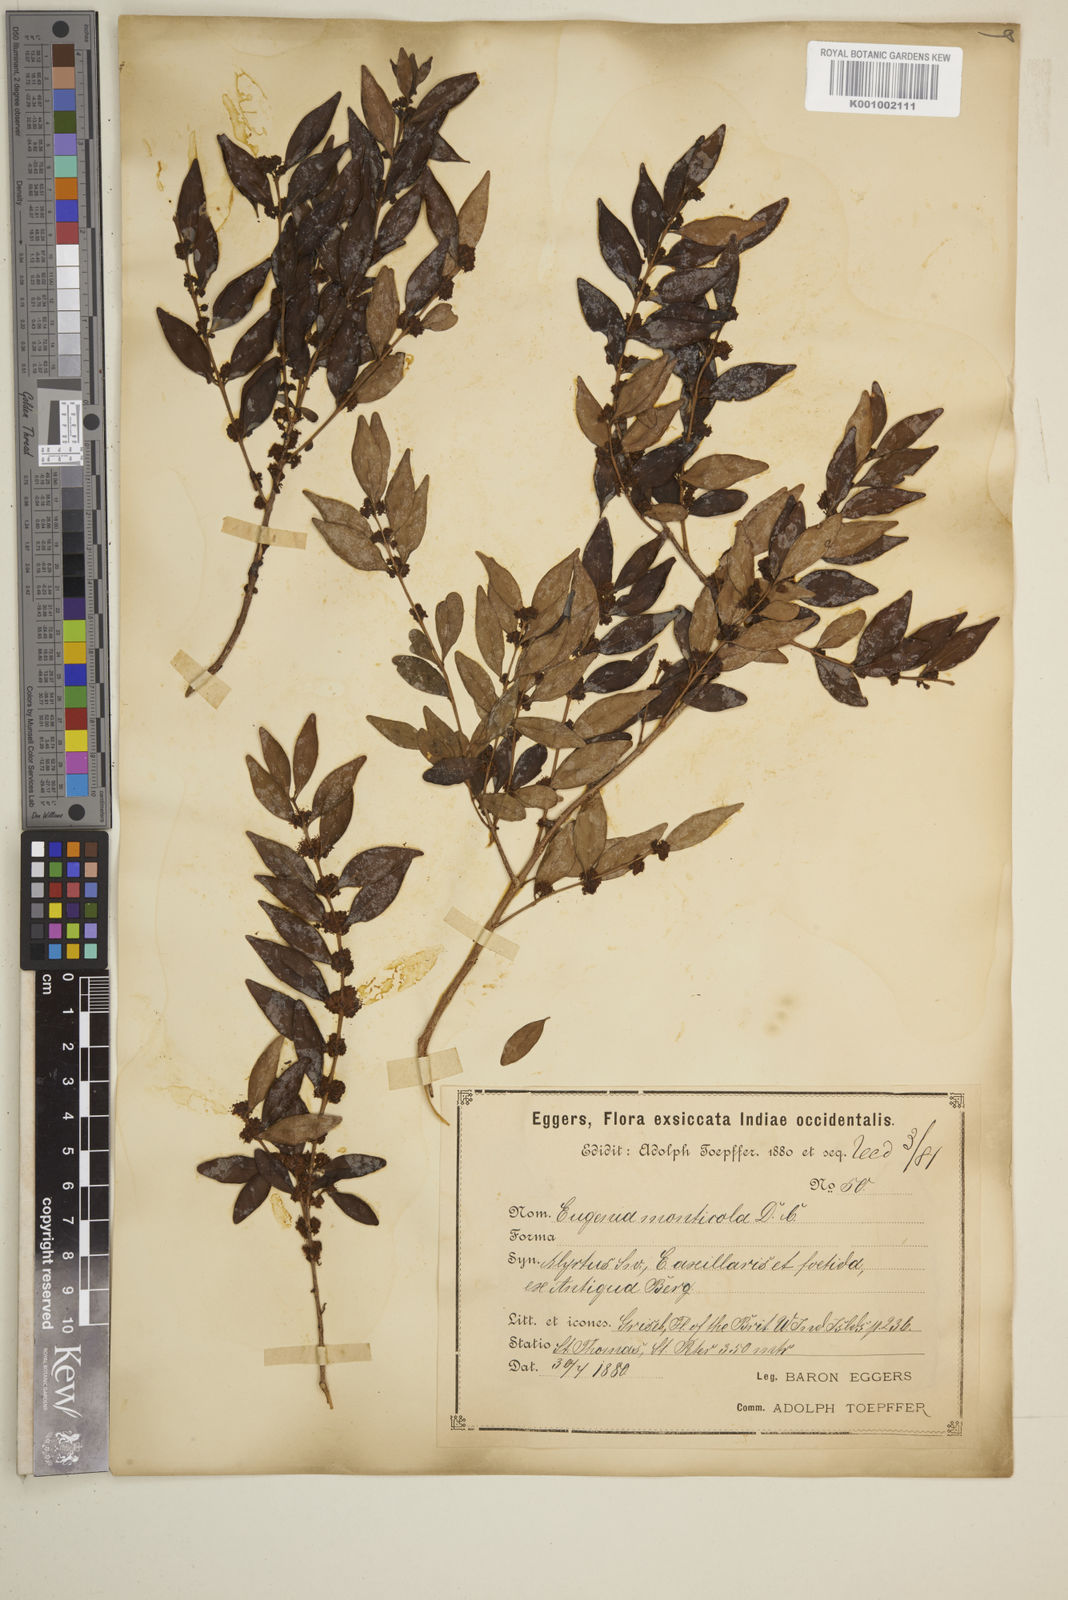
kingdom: Plantae
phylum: Tracheophyta
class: Magnoliopsida
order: Myrtales
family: Myrtaceae
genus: Eugenia
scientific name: Eugenia monticola
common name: Birds berry
